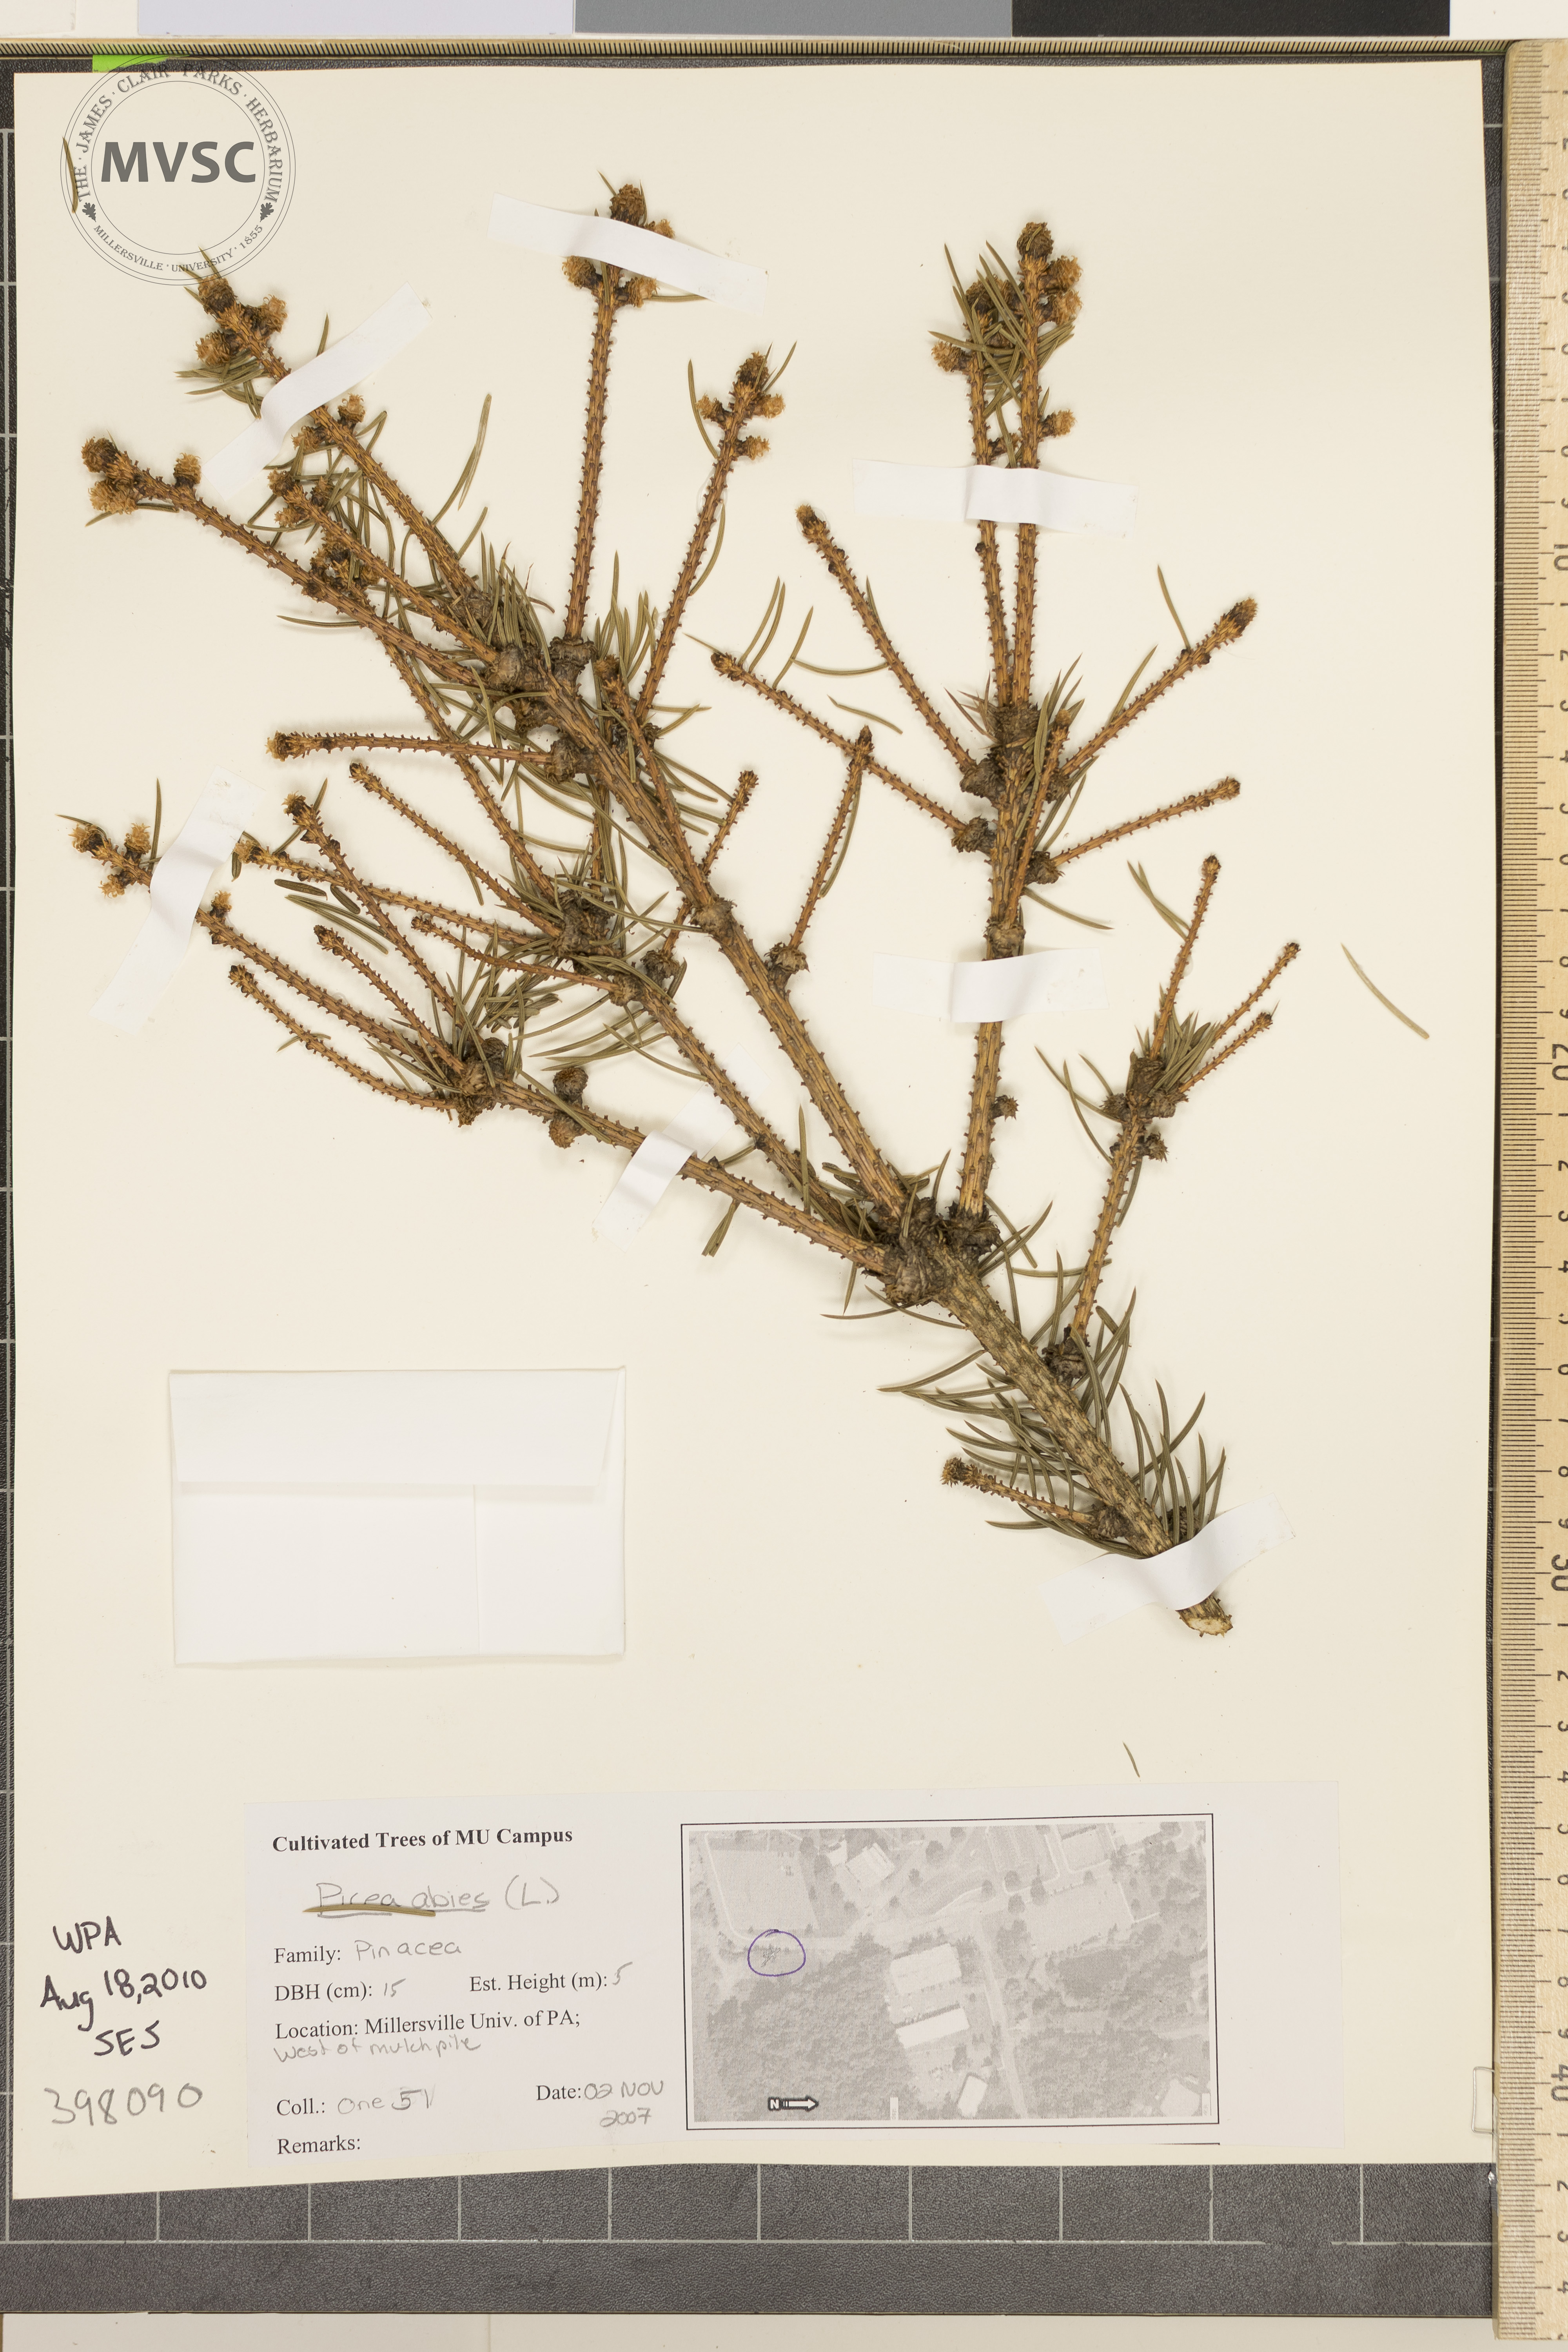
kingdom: Plantae
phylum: Tracheophyta
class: Pinopsida
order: Pinales
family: Pinaceae
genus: Picea
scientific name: Picea abies
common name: Norway spruce
